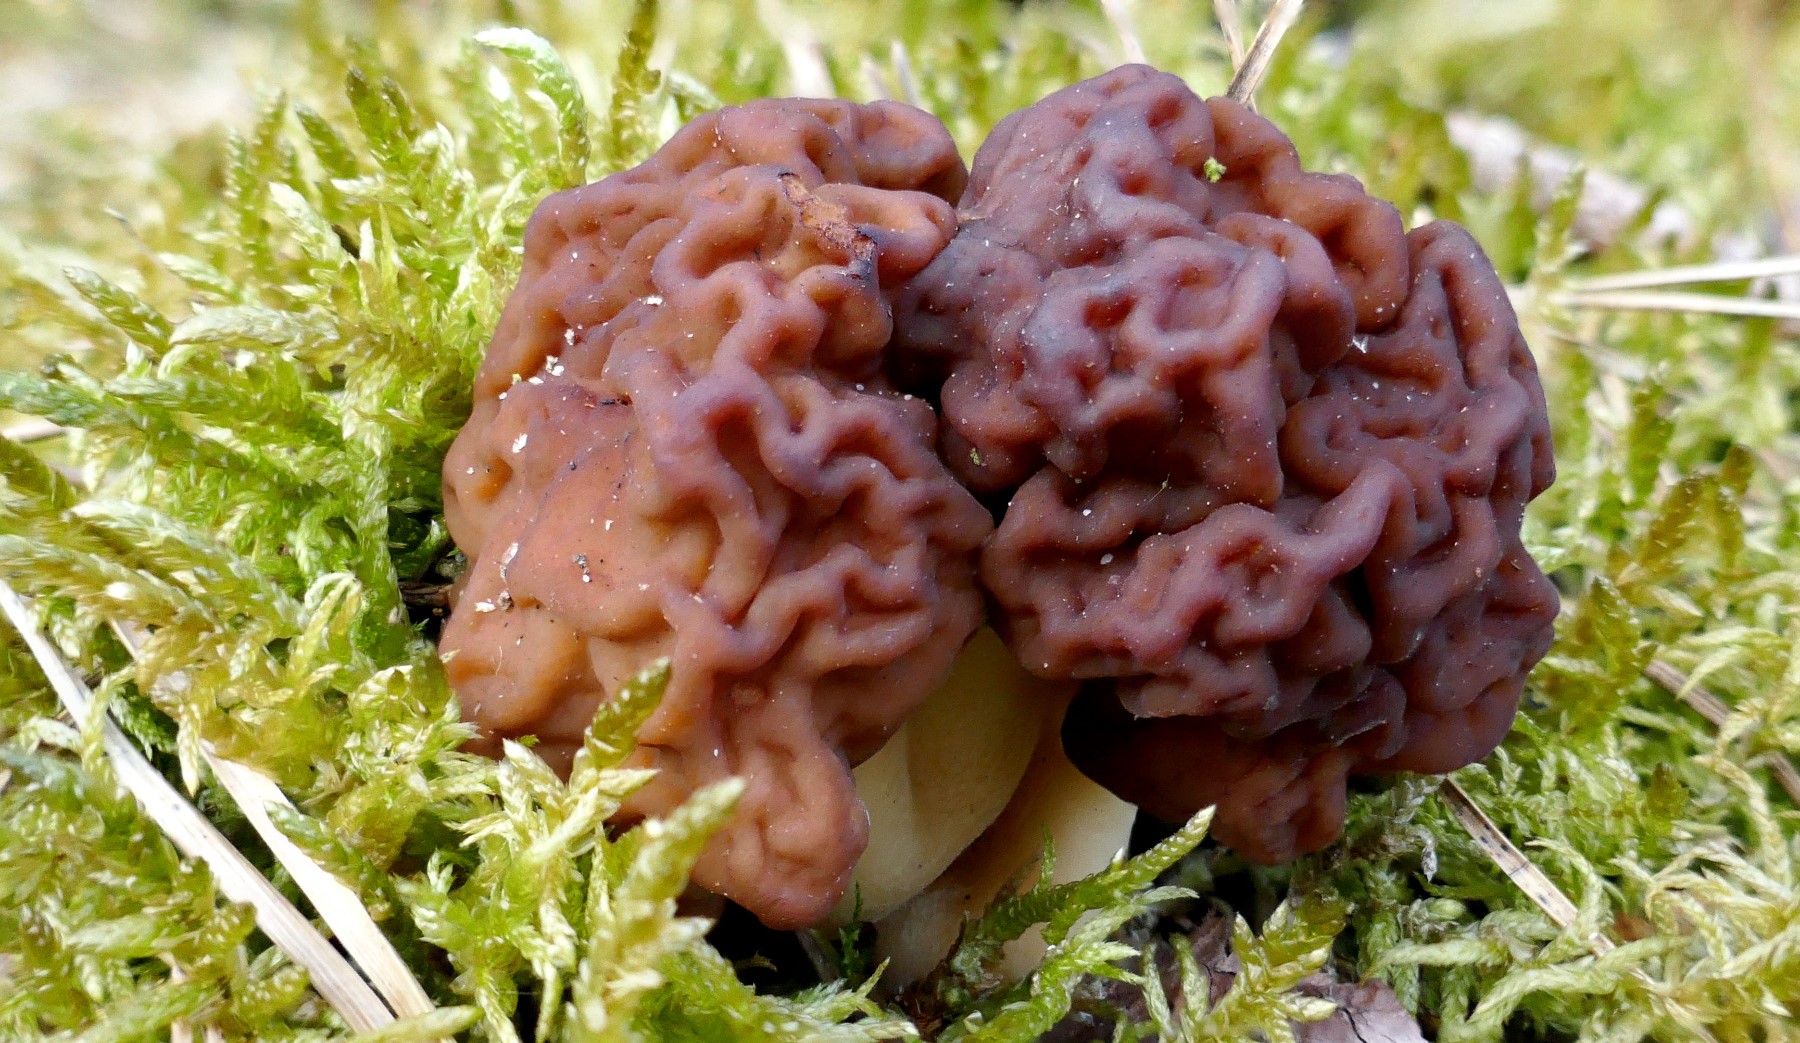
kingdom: Fungi
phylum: Ascomycota
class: Pezizomycetes
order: Pezizales
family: Discinaceae
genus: Gyromitra
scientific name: Gyromitra esculenta
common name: ægte stenmorkel
